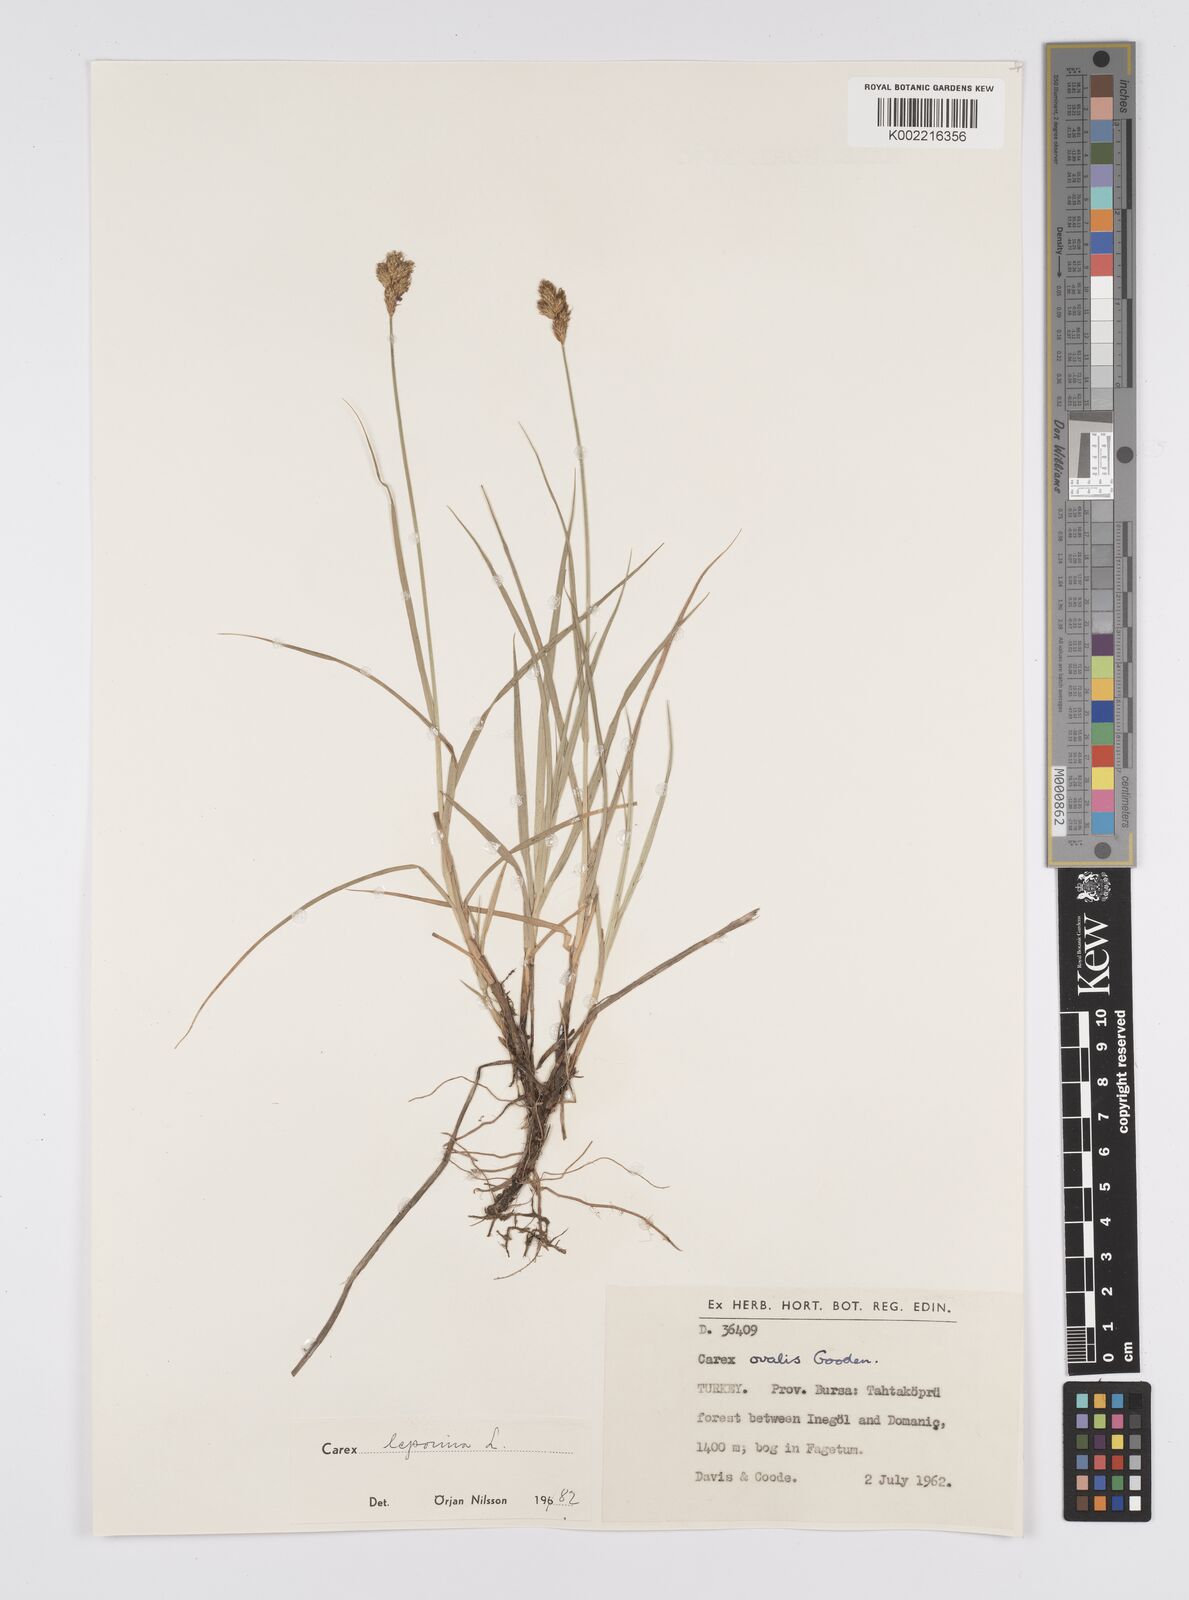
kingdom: Plantae
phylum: Tracheophyta
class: Liliopsida
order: Poales
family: Cyperaceae
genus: Carex
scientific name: Carex leporina
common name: Oval sedge
